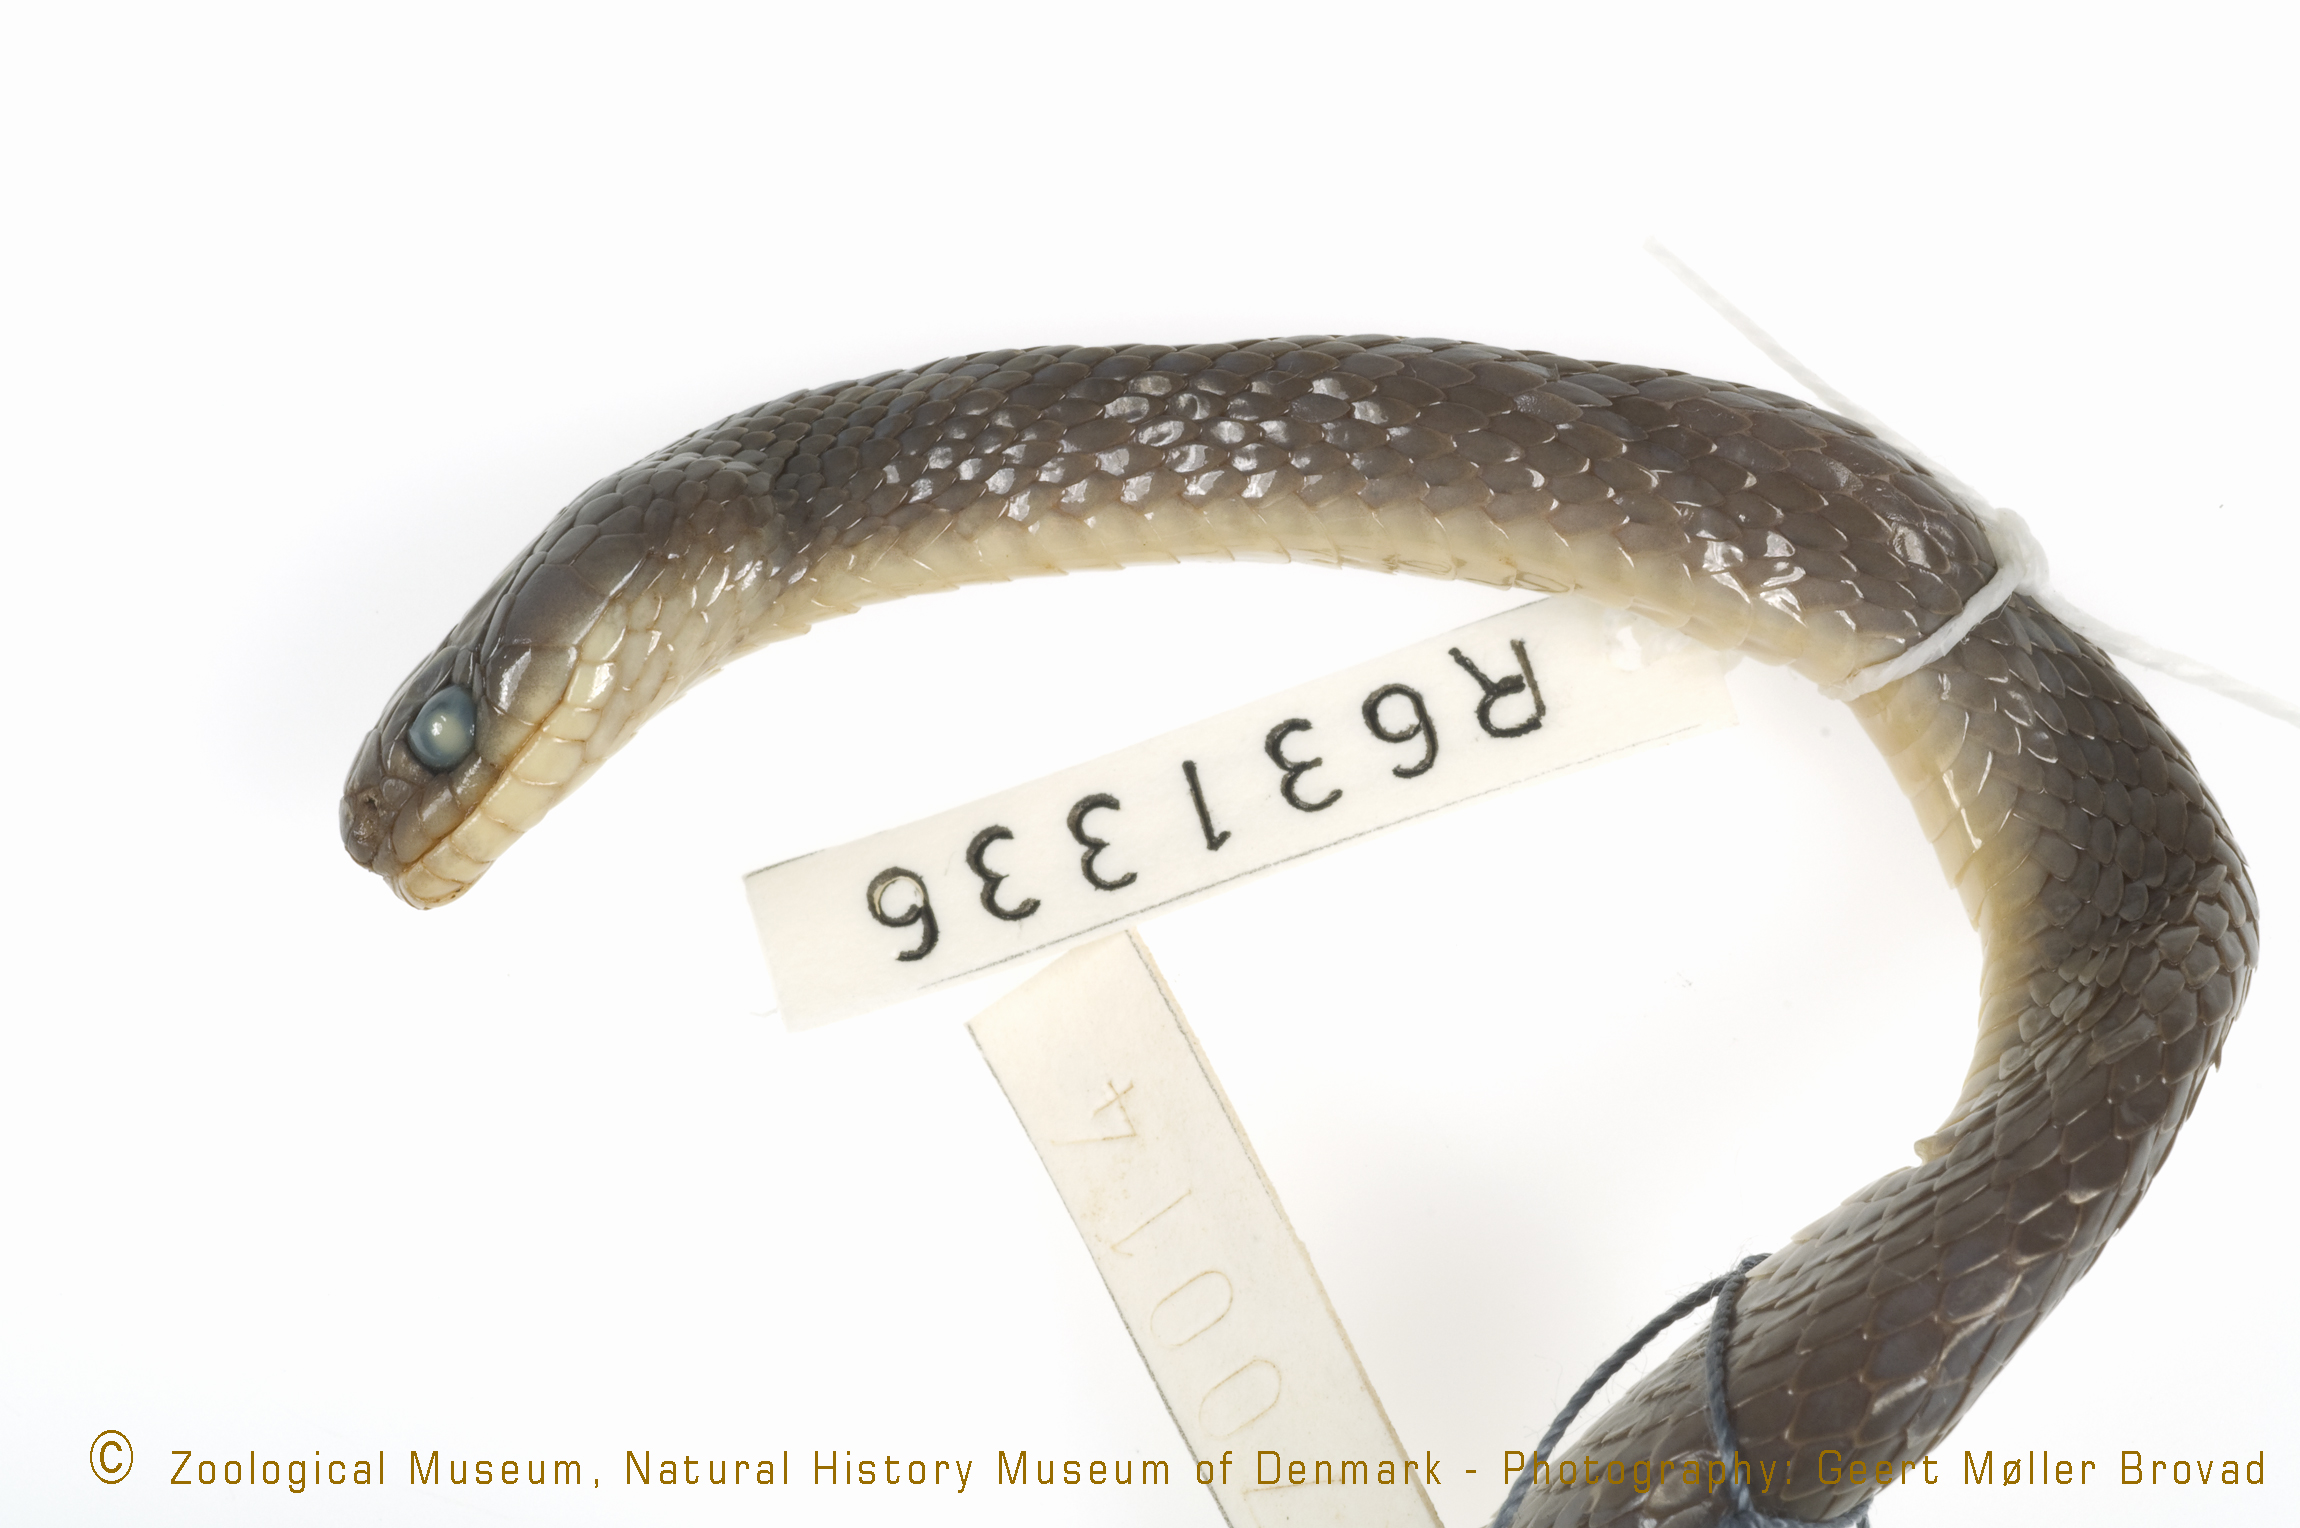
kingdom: Animalia
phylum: Chordata
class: Squamata
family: Colubridae
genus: Dipsadoboa
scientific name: Dipsadoboa werneri
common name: Werner's green tree snake
